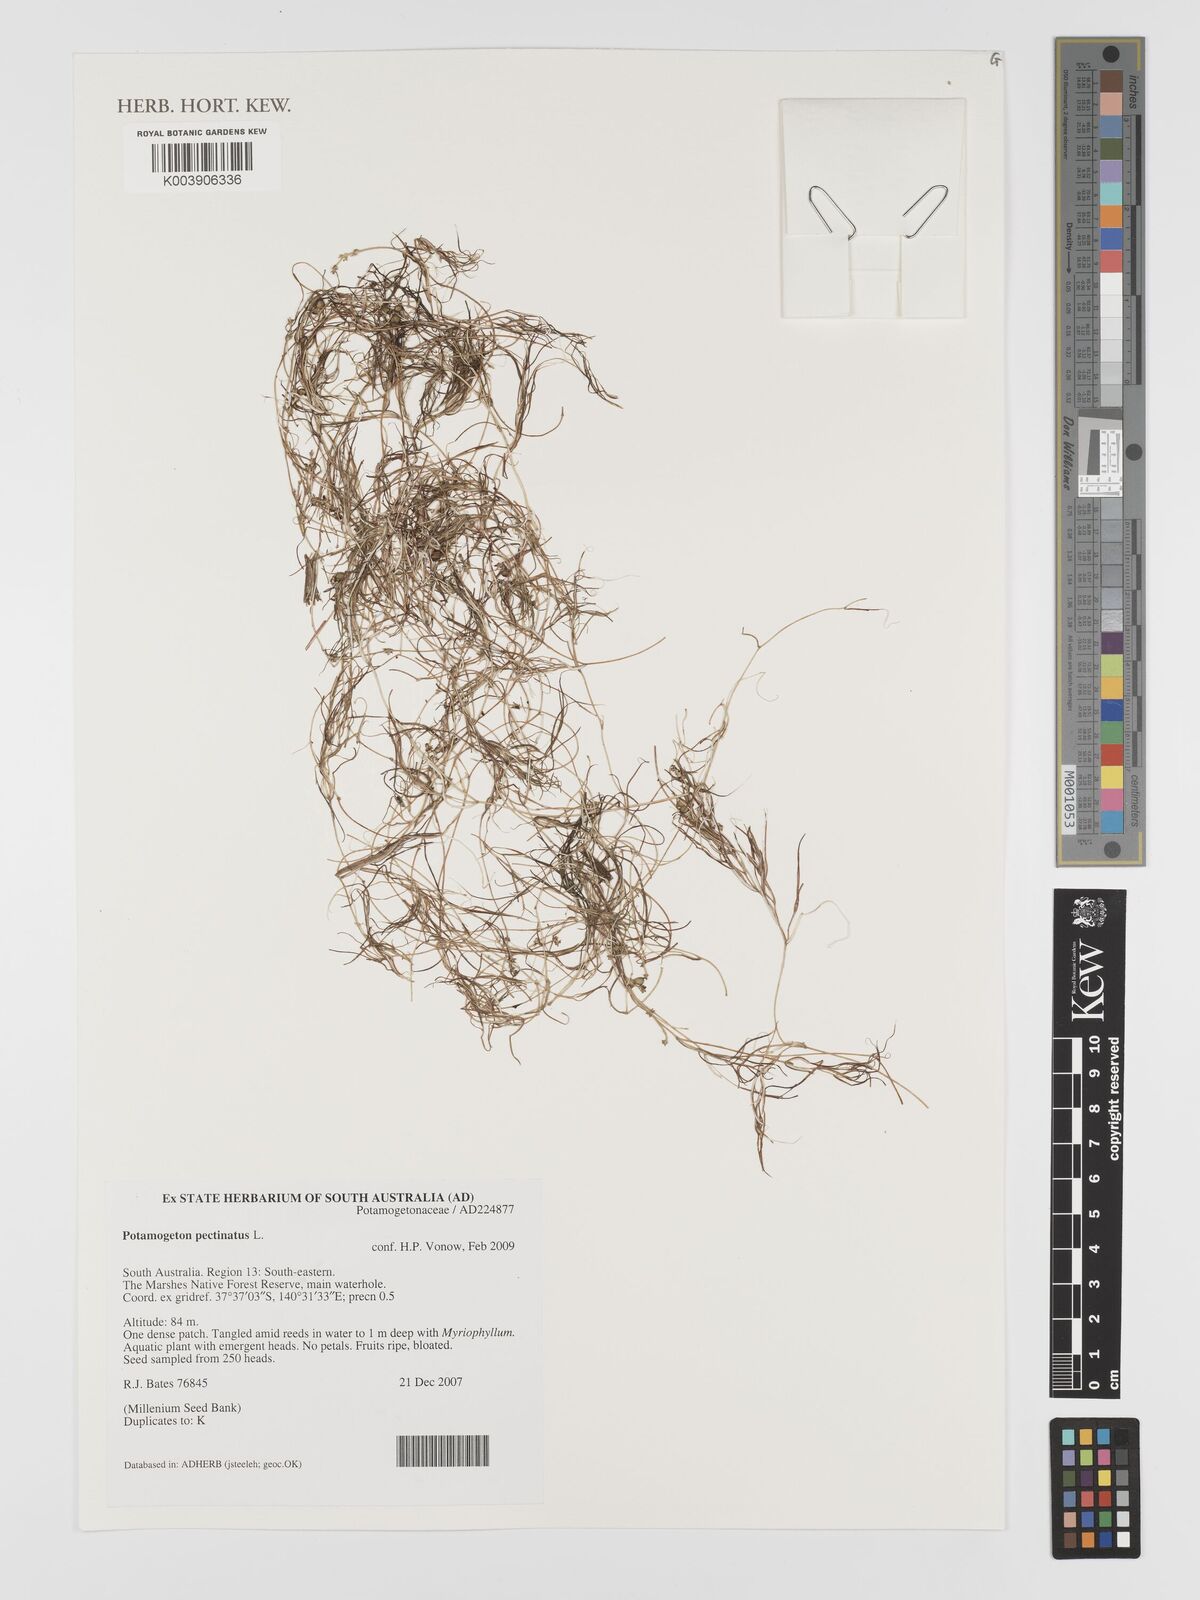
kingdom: Plantae
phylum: Tracheophyta
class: Liliopsida
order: Alismatales
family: Potamogetonaceae
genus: Stuckenia
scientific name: Stuckenia pectinata
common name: Sago pondweed
